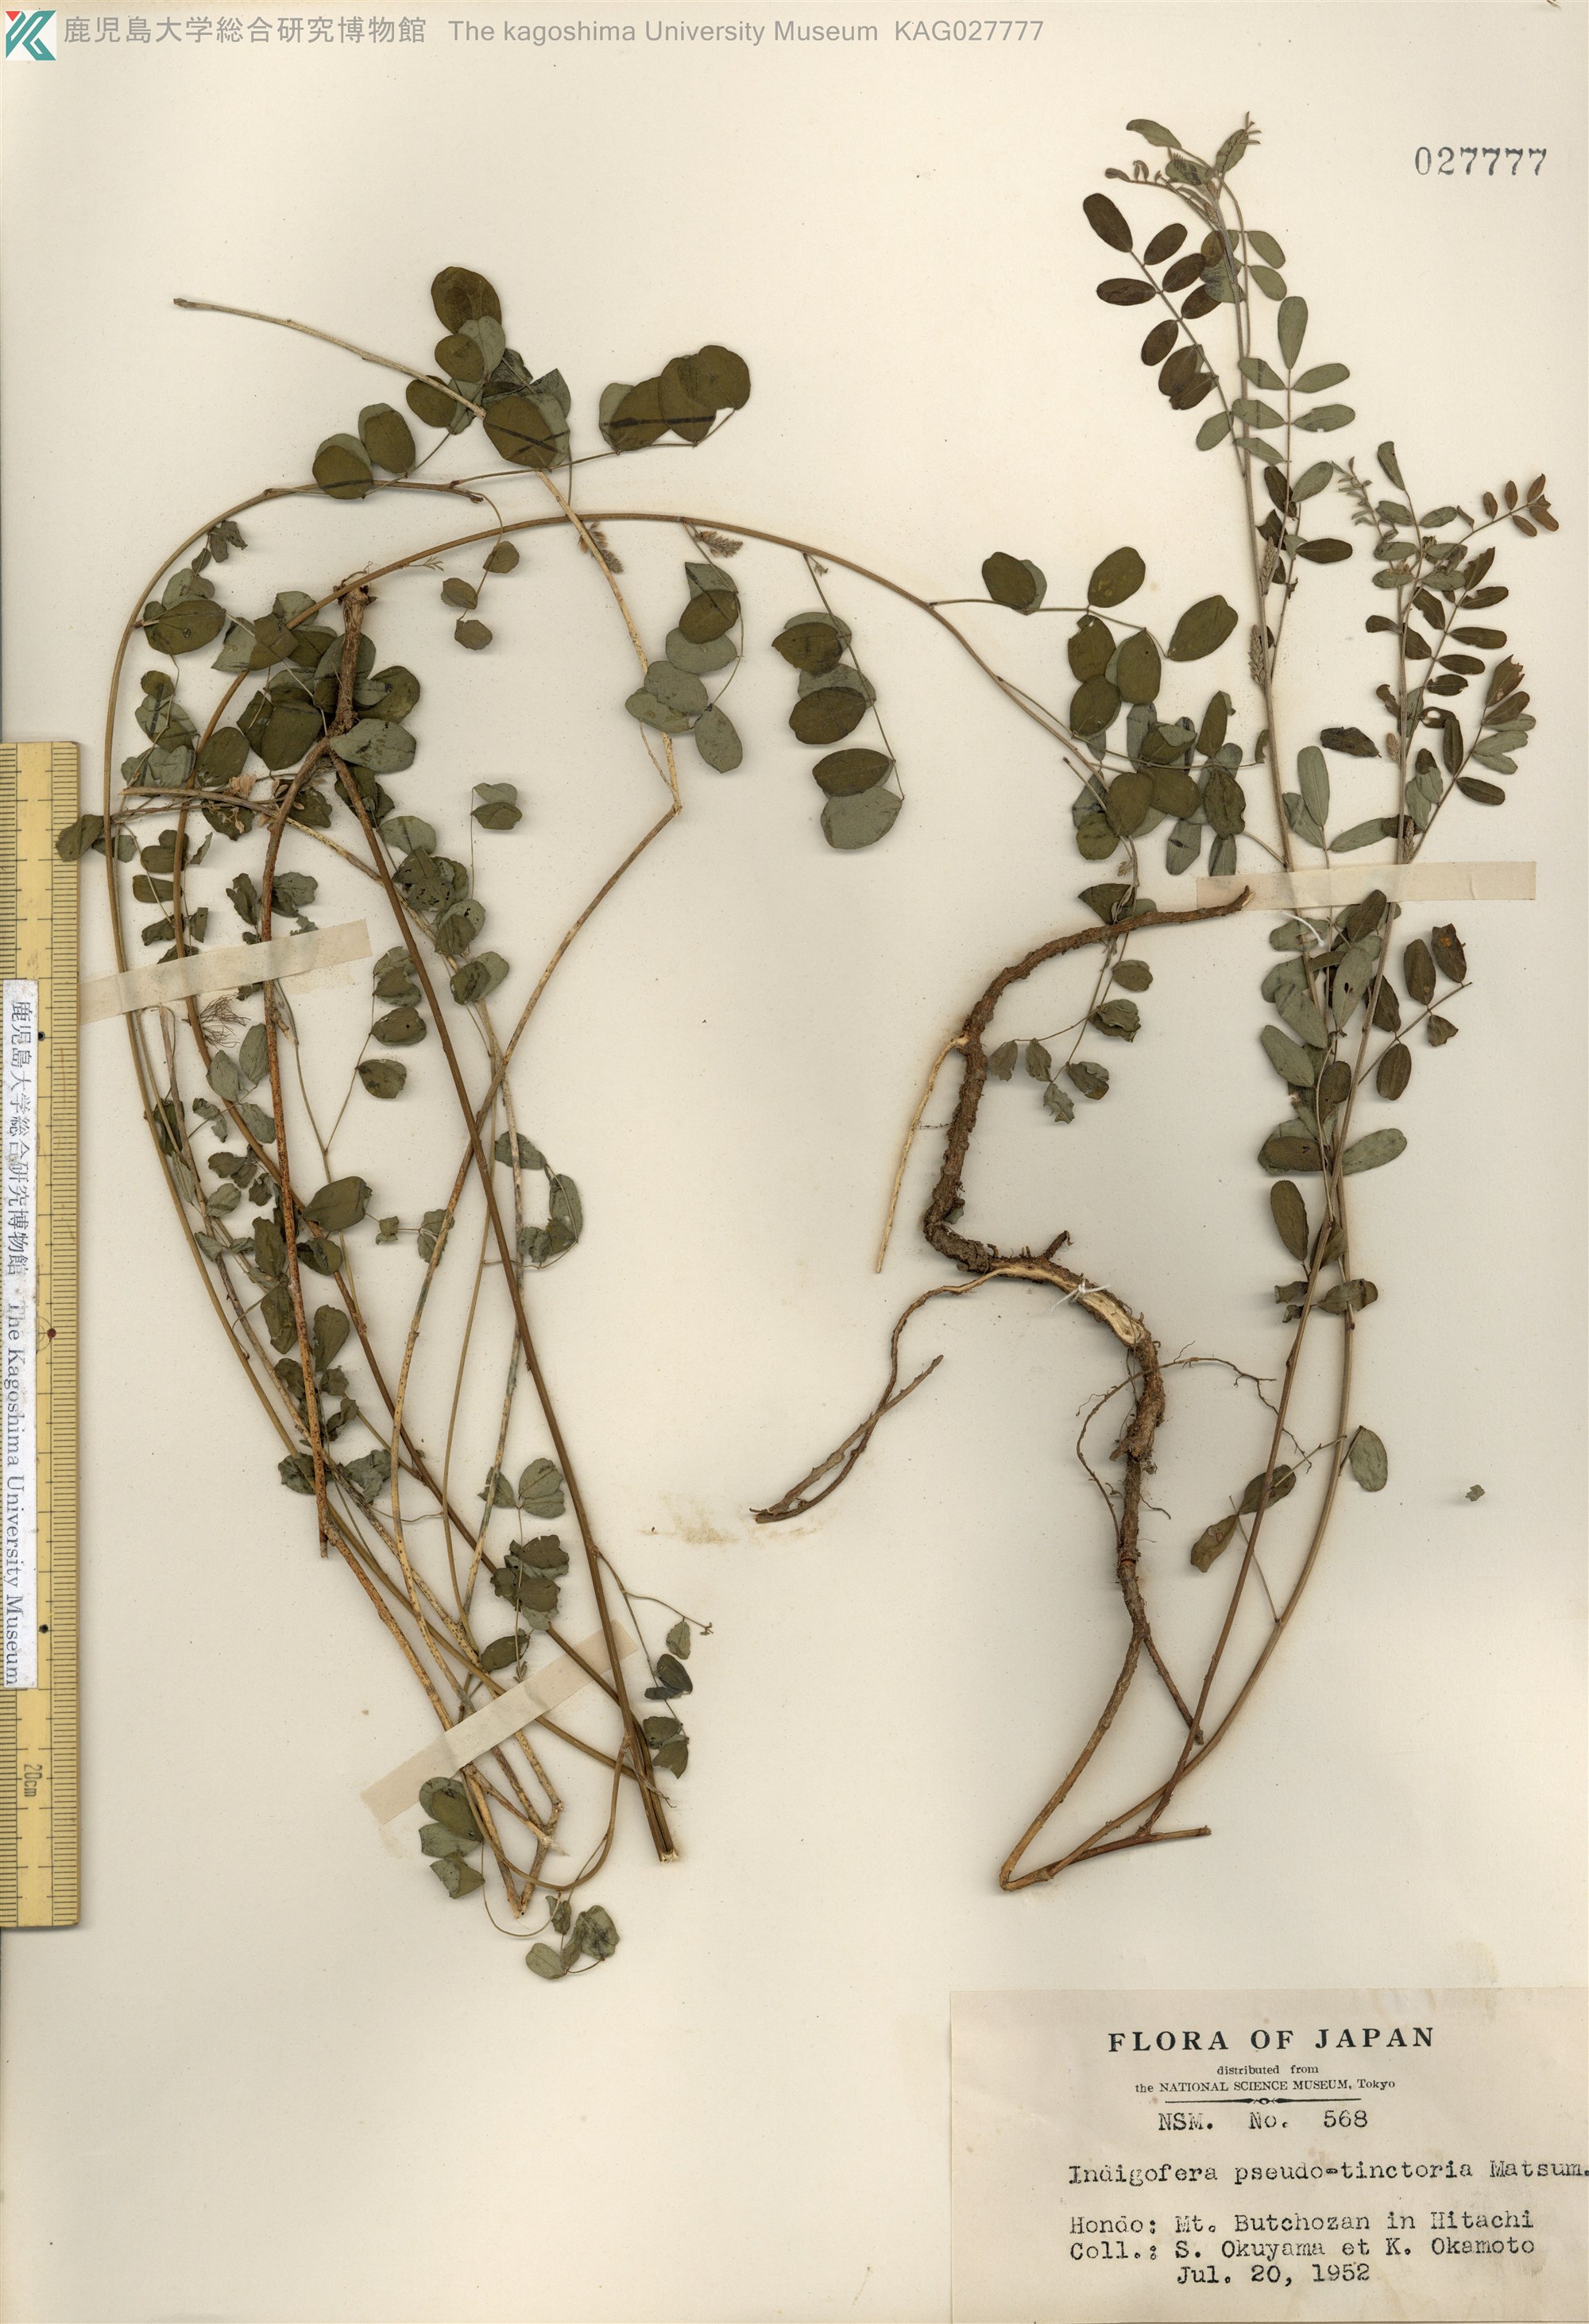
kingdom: Plantae
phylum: Tracheophyta
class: Magnoliopsida
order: Fabales
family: Fabaceae
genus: Indigofera
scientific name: Indigofera bungeana
